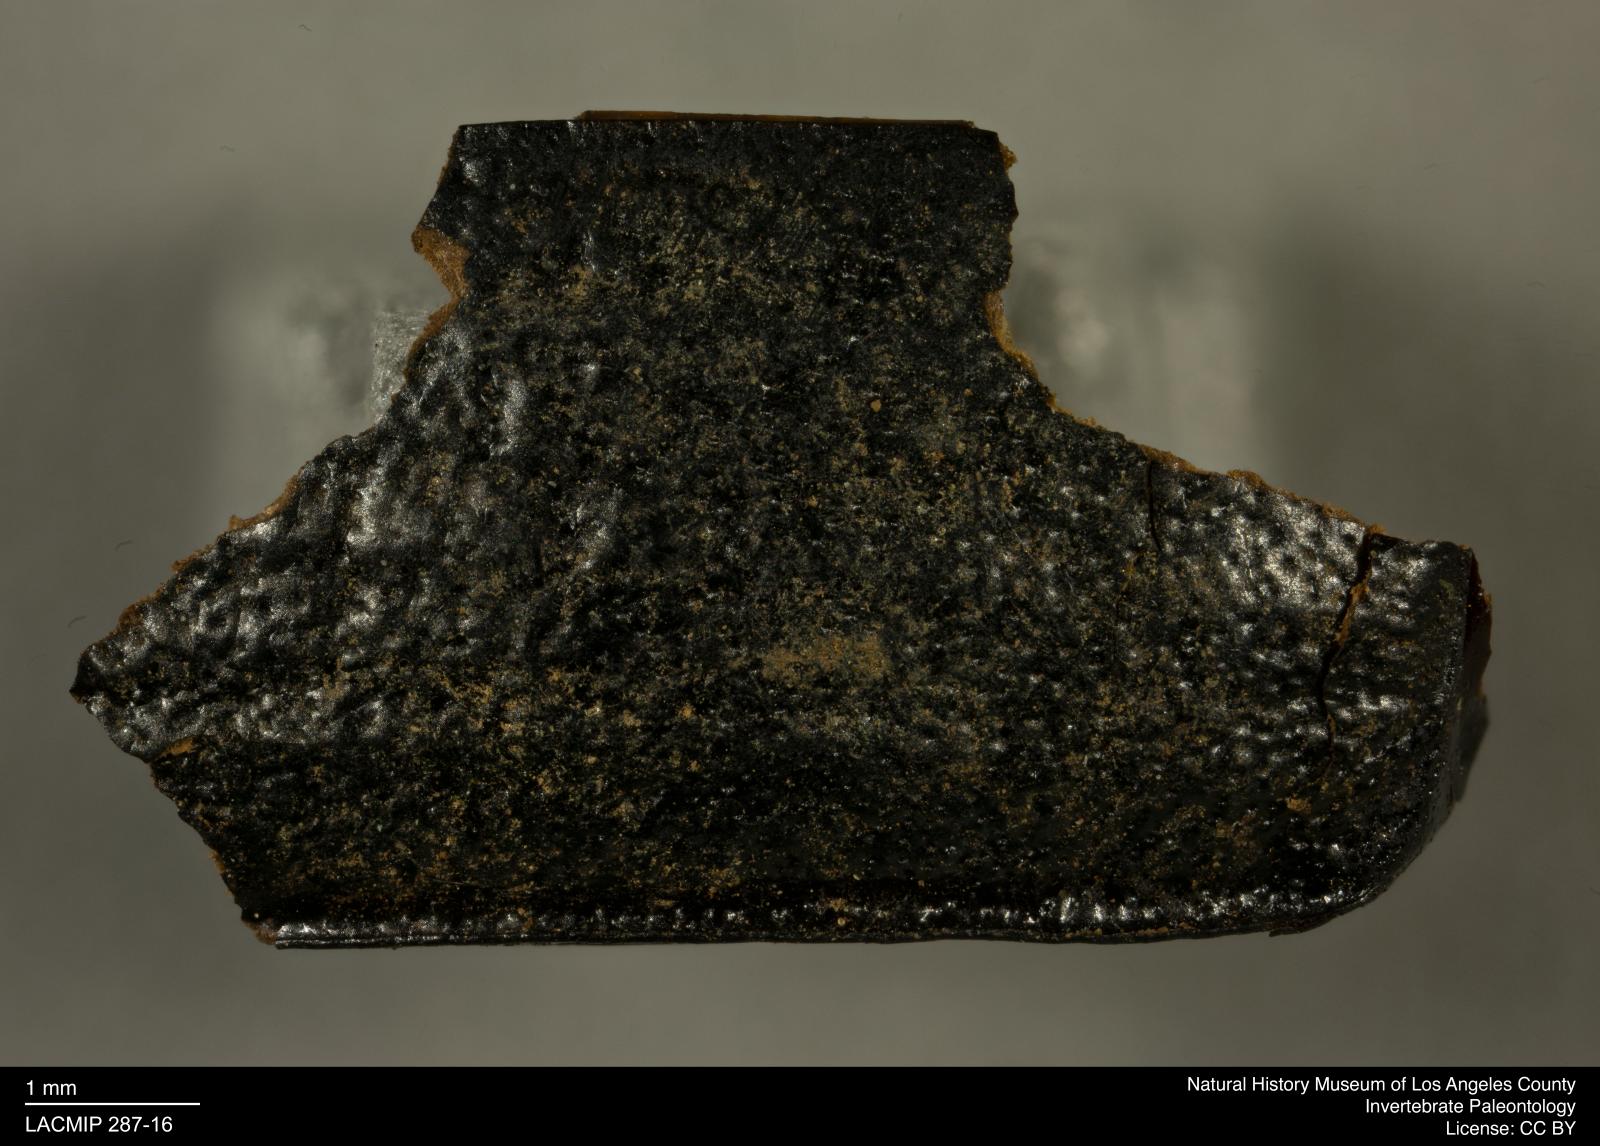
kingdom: Animalia
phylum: Arthropoda
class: Insecta
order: Coleoptera
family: Tenebrionidae
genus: Coniontis
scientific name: Coniontis abdominalis
